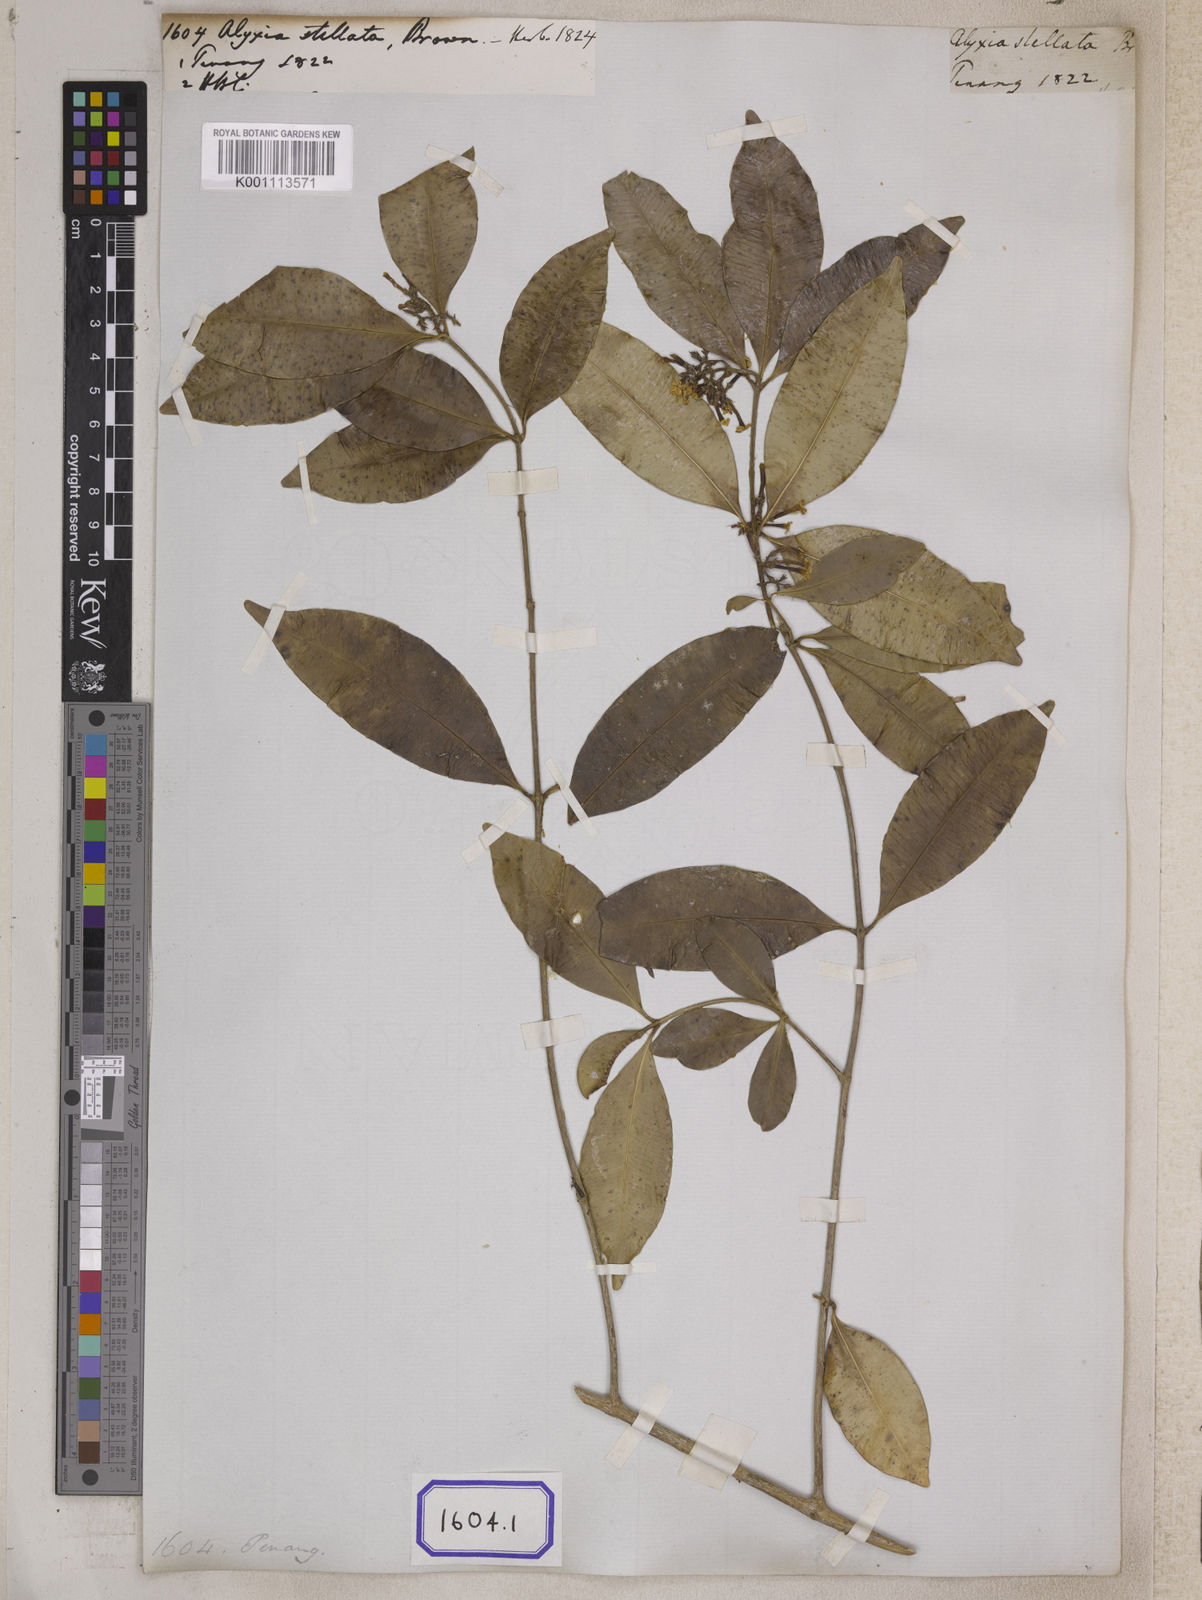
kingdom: Plantae
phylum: Tracheophyta
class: Magnoliopsida
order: Gentianales
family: Apocynaceae
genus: Alyxia
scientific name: Alyxia
